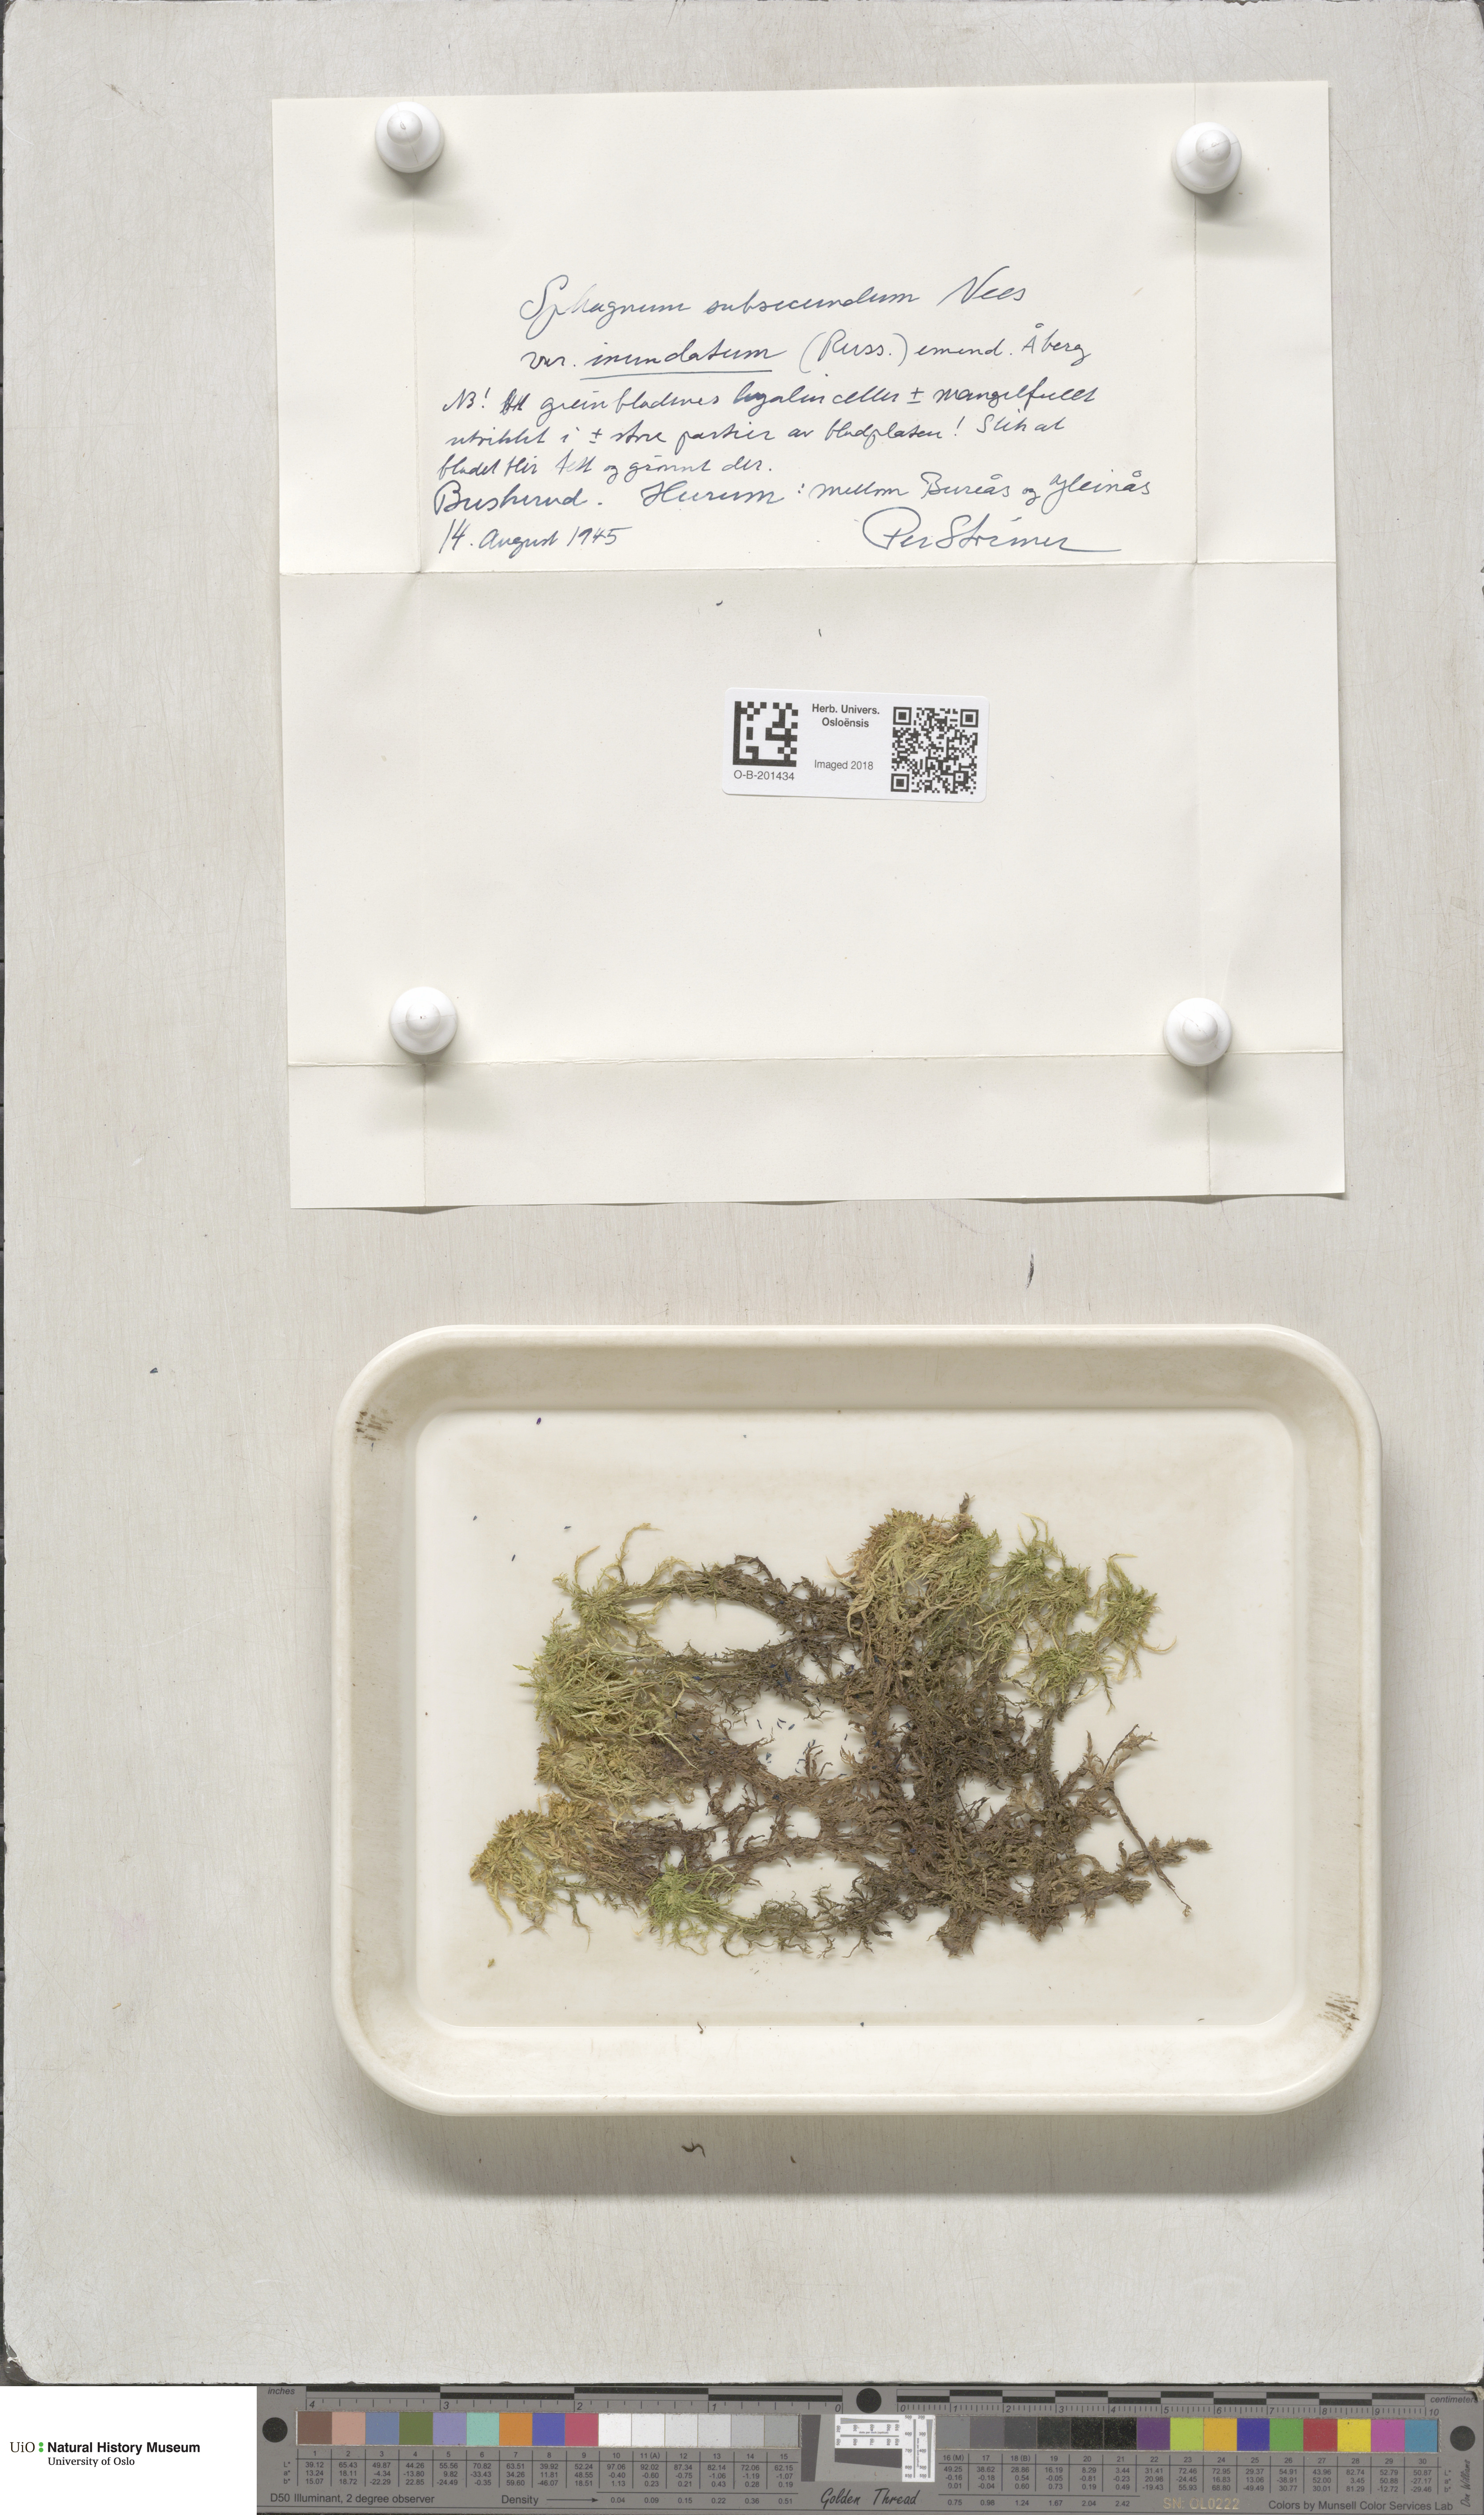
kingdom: Plantae
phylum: Bryophyta
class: Sphagnopsida
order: Sphagnales
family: Sphagnaceae
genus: Sphagnum
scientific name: Sphagnum inundatum
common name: Lesser cow-horn bog-moss
